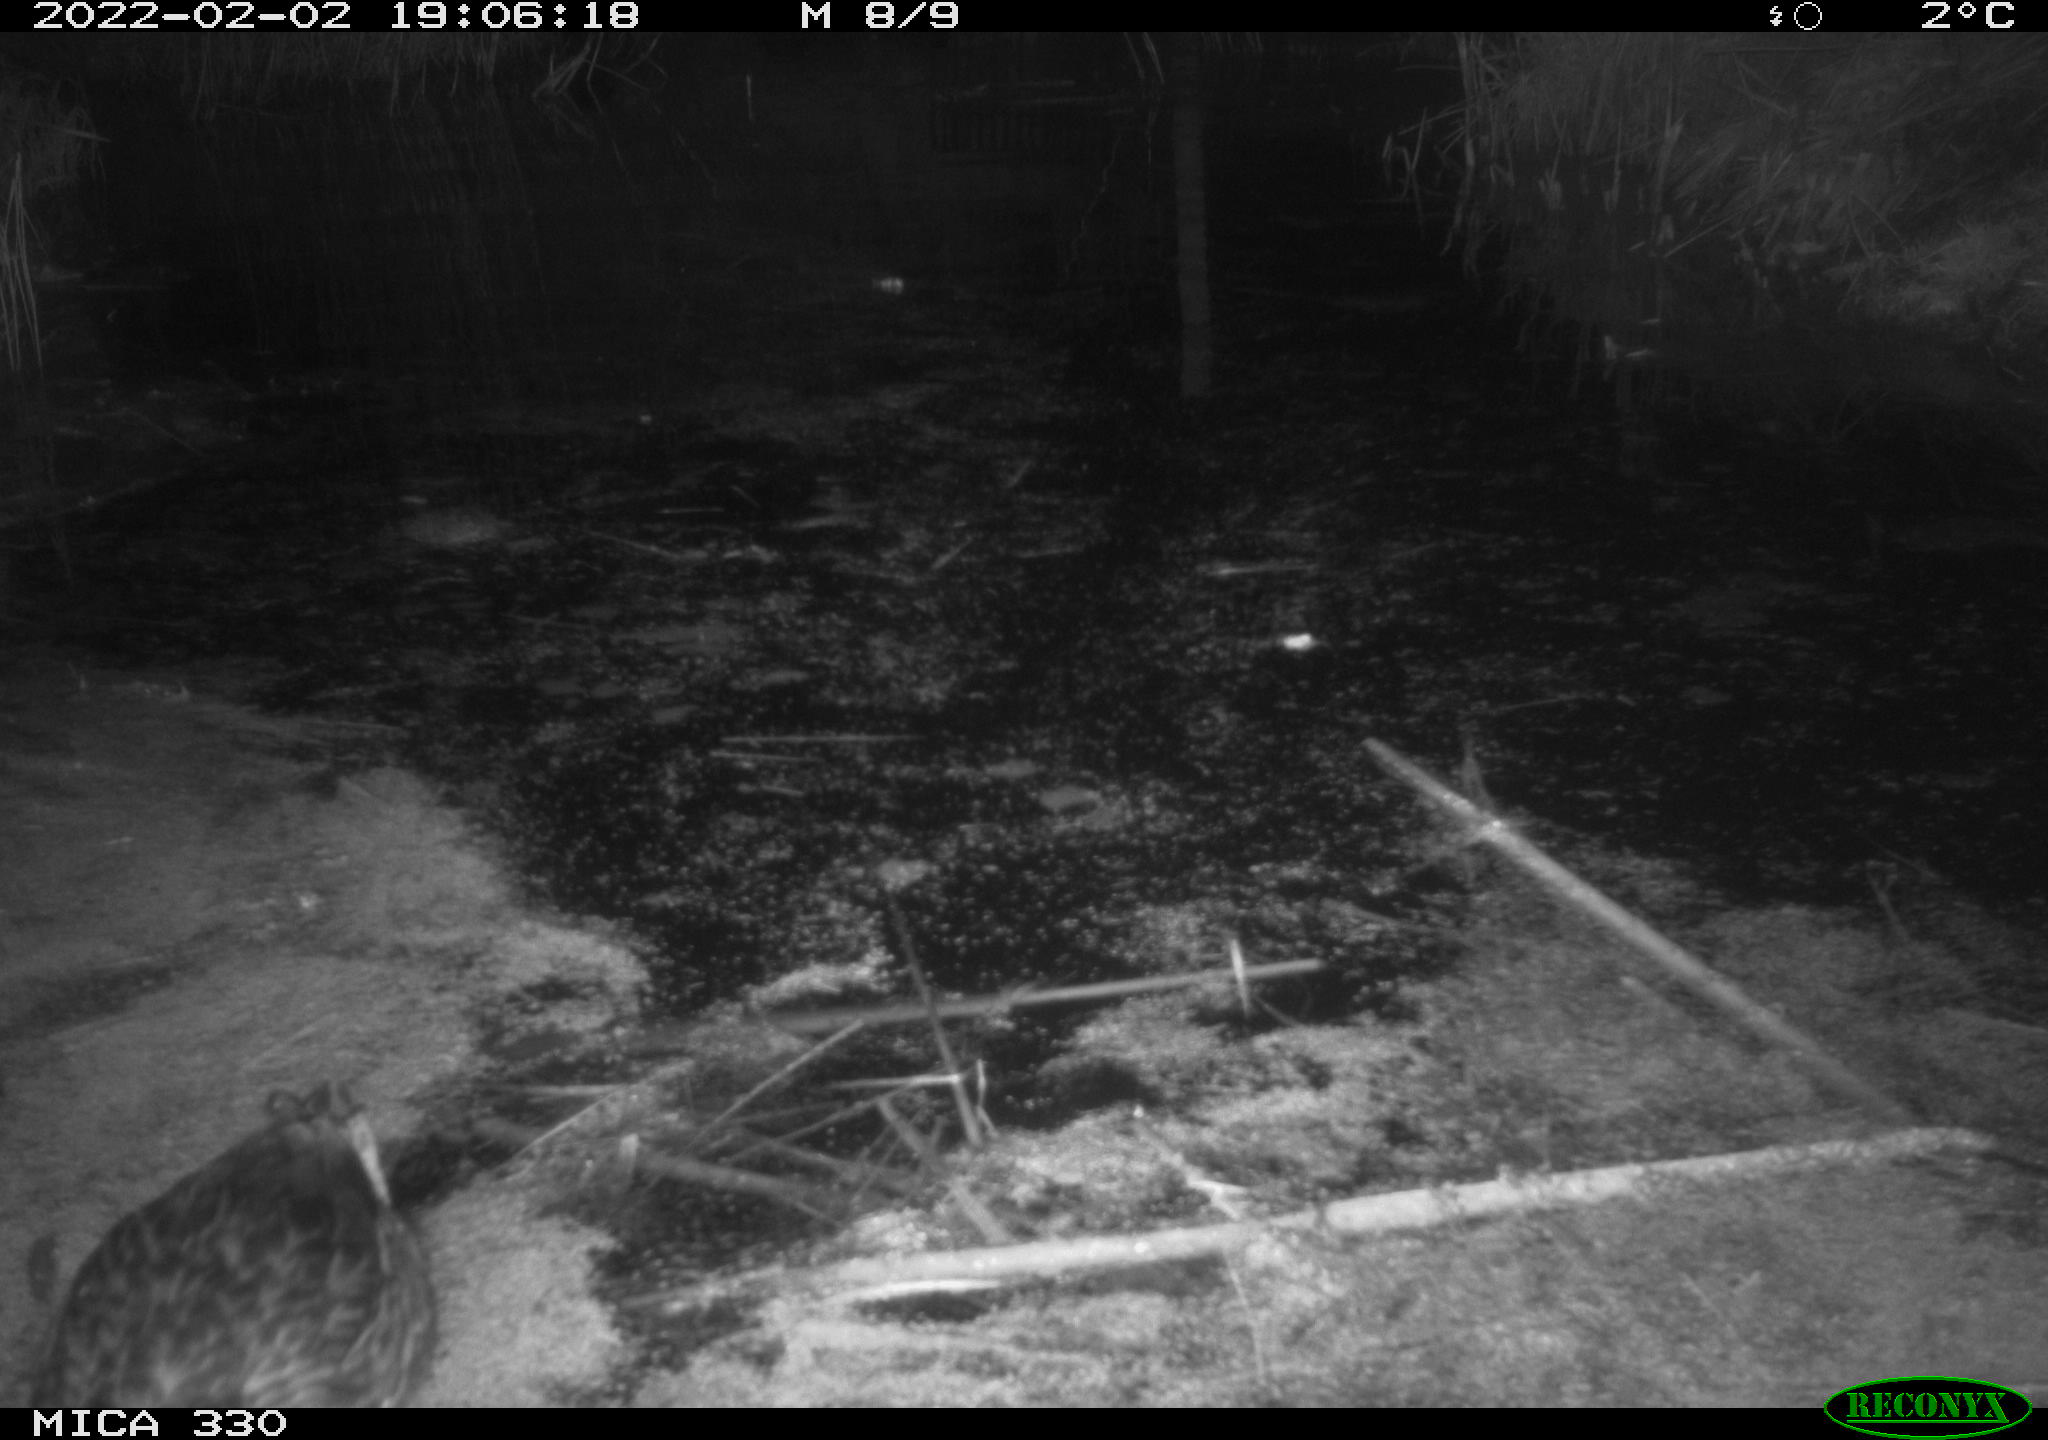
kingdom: Animalia
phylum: Chordata
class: Aves
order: Anseriformes
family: Anatidae
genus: Anas
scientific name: Anas platyrhynchos
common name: Mallard
